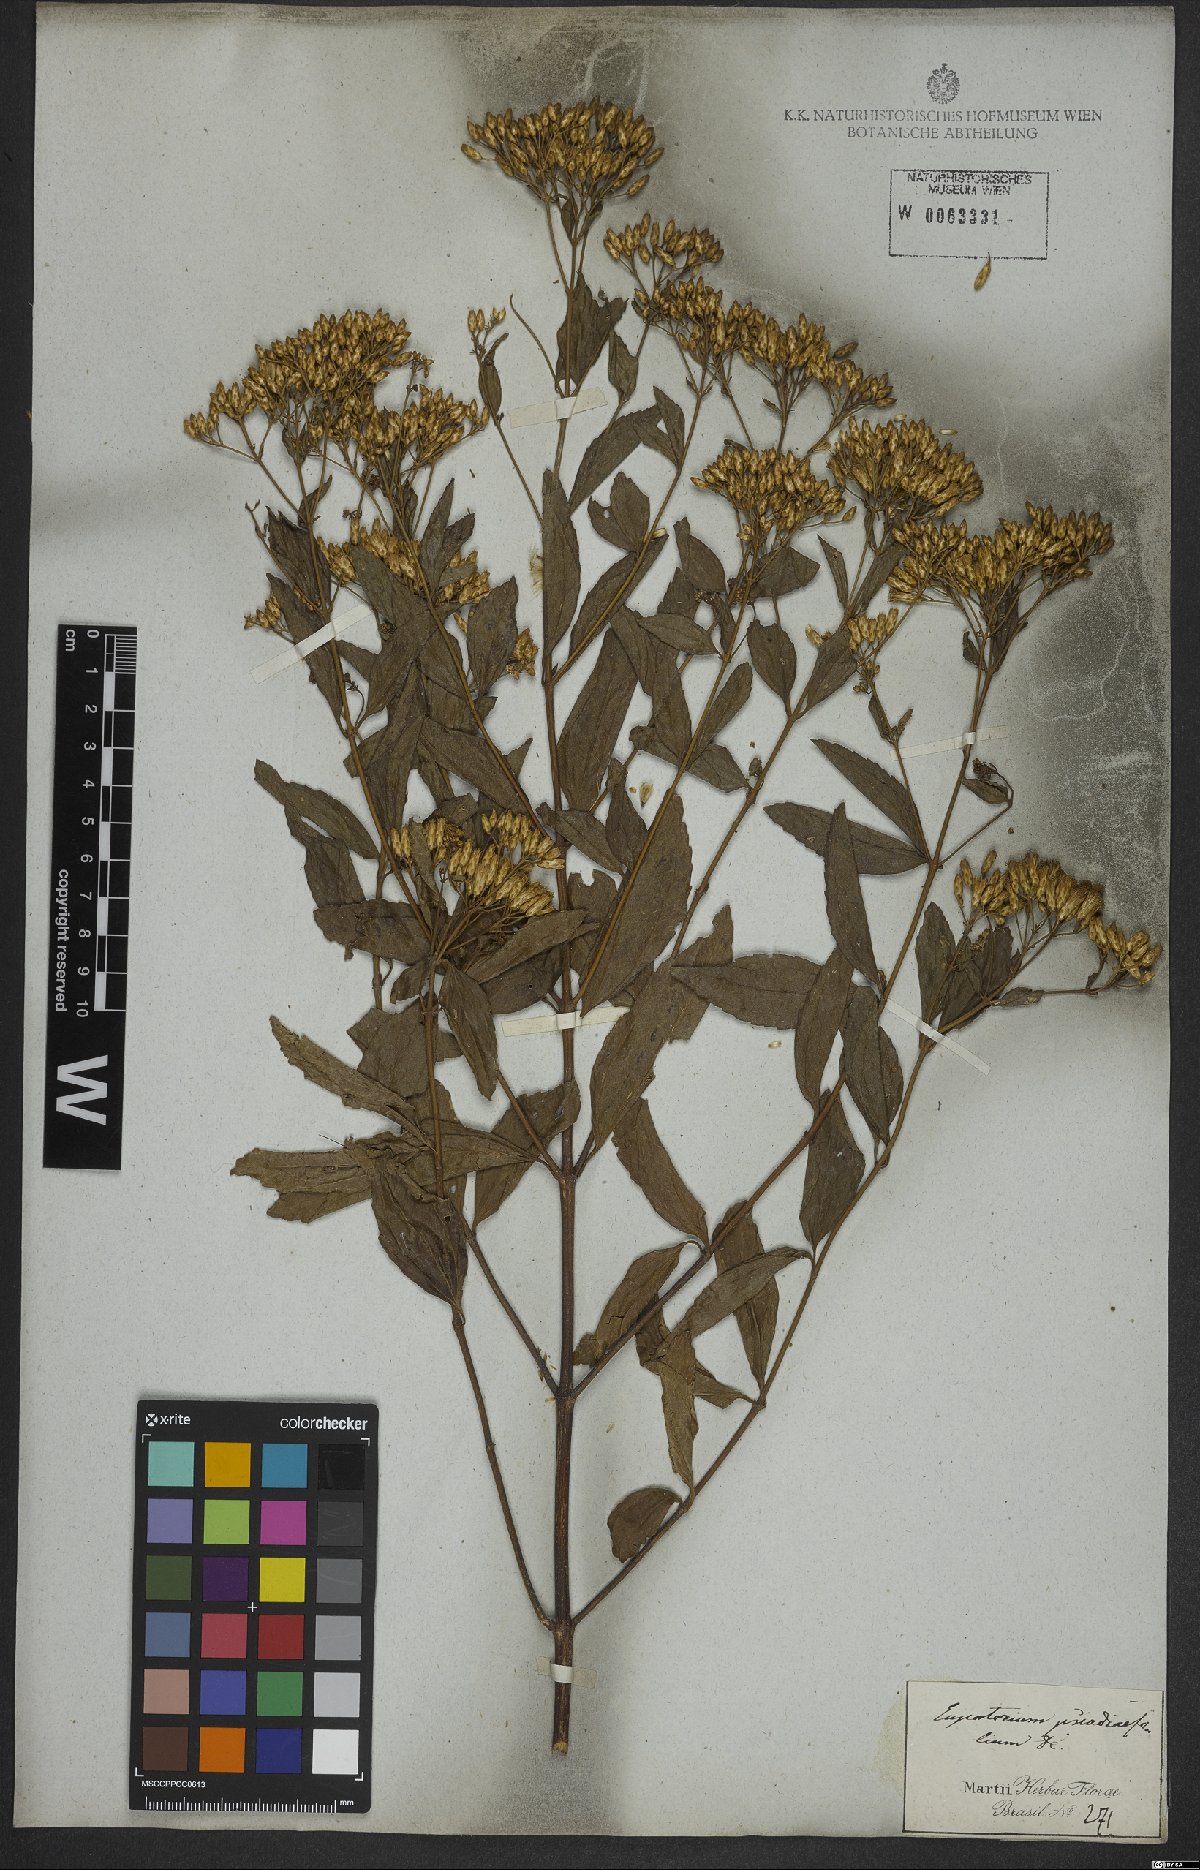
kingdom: Plantae
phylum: Tracheophyta
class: Magnoliopsida
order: Asterales
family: Asteraceae
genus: Eupatorium
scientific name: Eupatorium laevigatum
